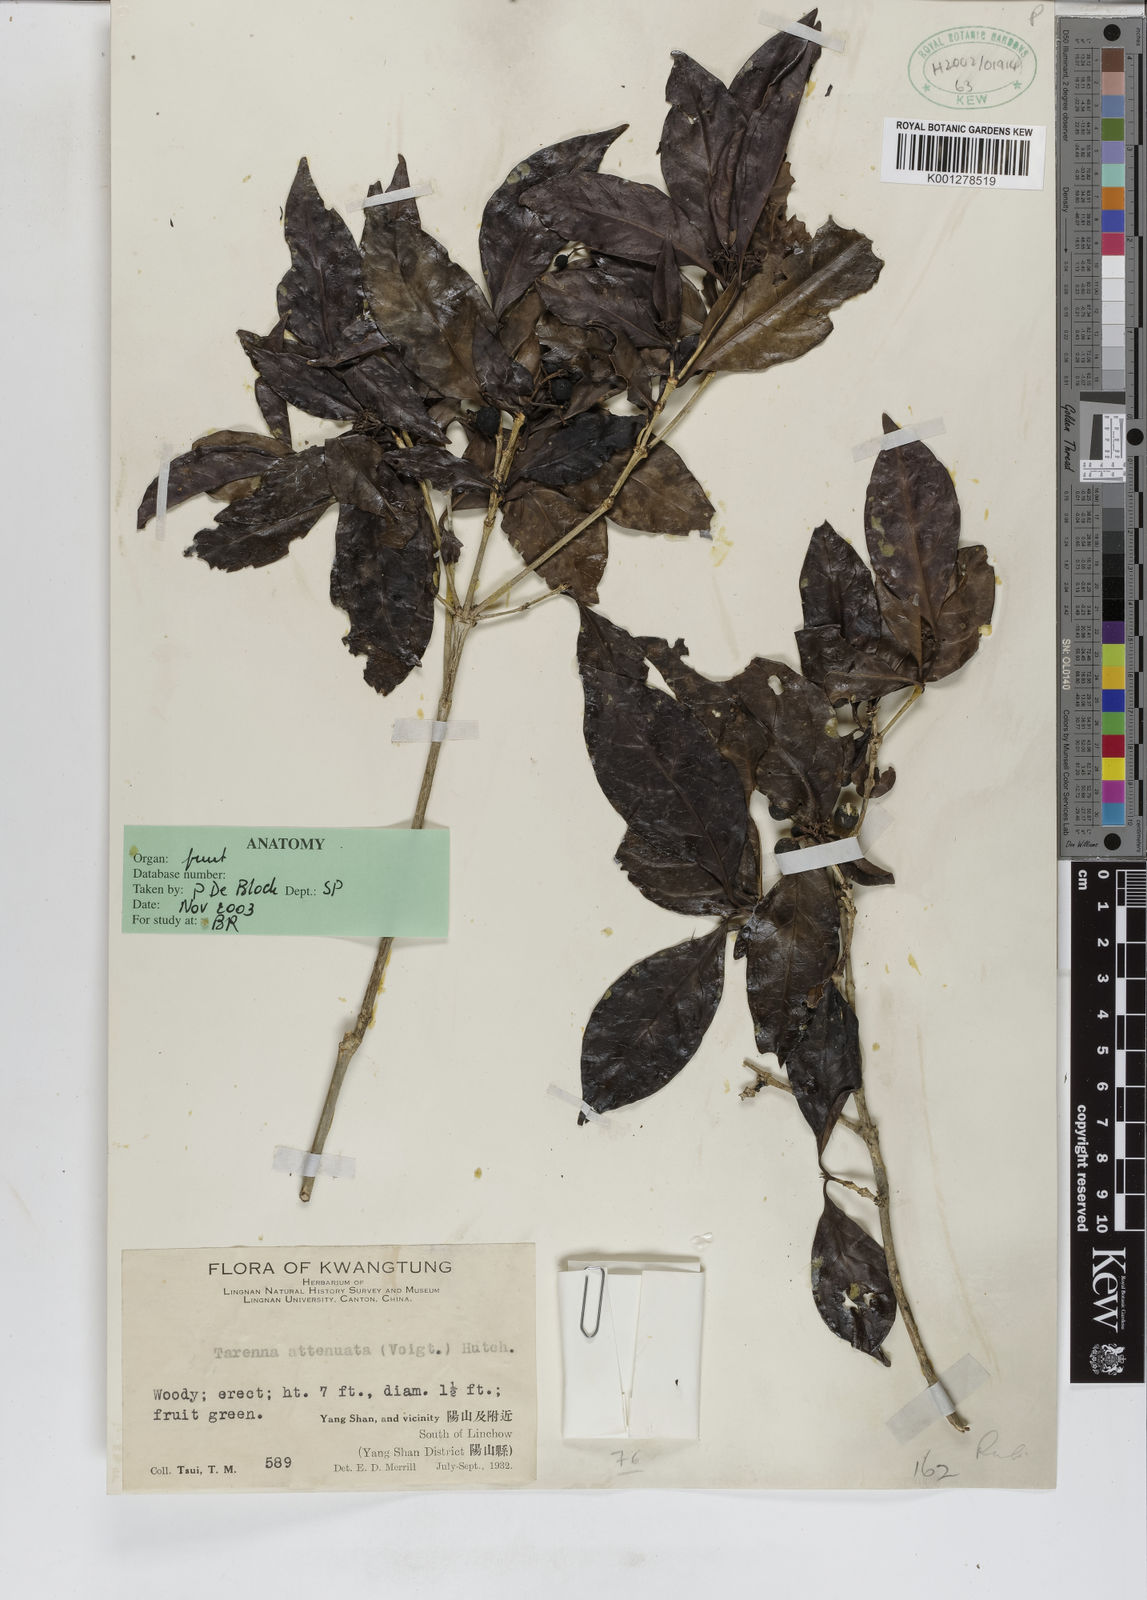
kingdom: Plantae
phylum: Tracheophyta
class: Magnoliopsida
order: Gentianales
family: Rubiaceae
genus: Tarenna
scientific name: Tarenna attenuata
